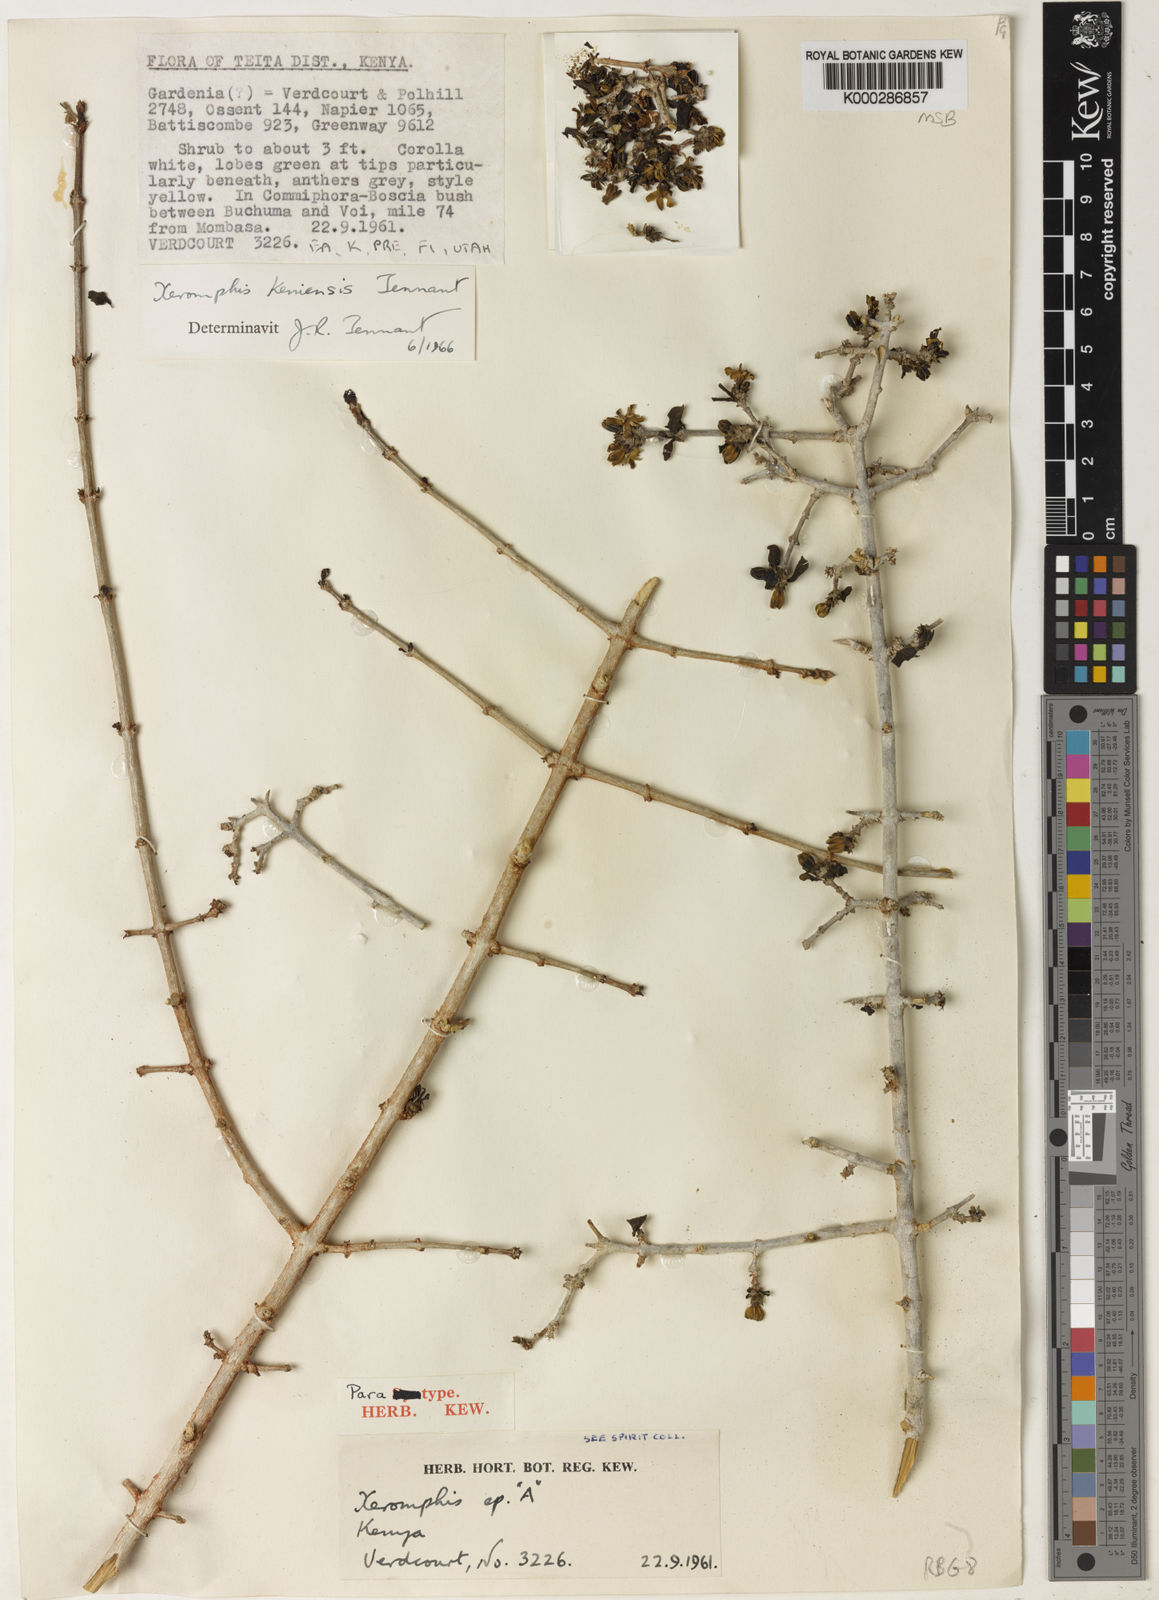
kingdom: Plantae
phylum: Tracheophyta
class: Magnoliopsida
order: Gentianales
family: Rubiaceae
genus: Tennantia
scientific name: Tennantia sennii
